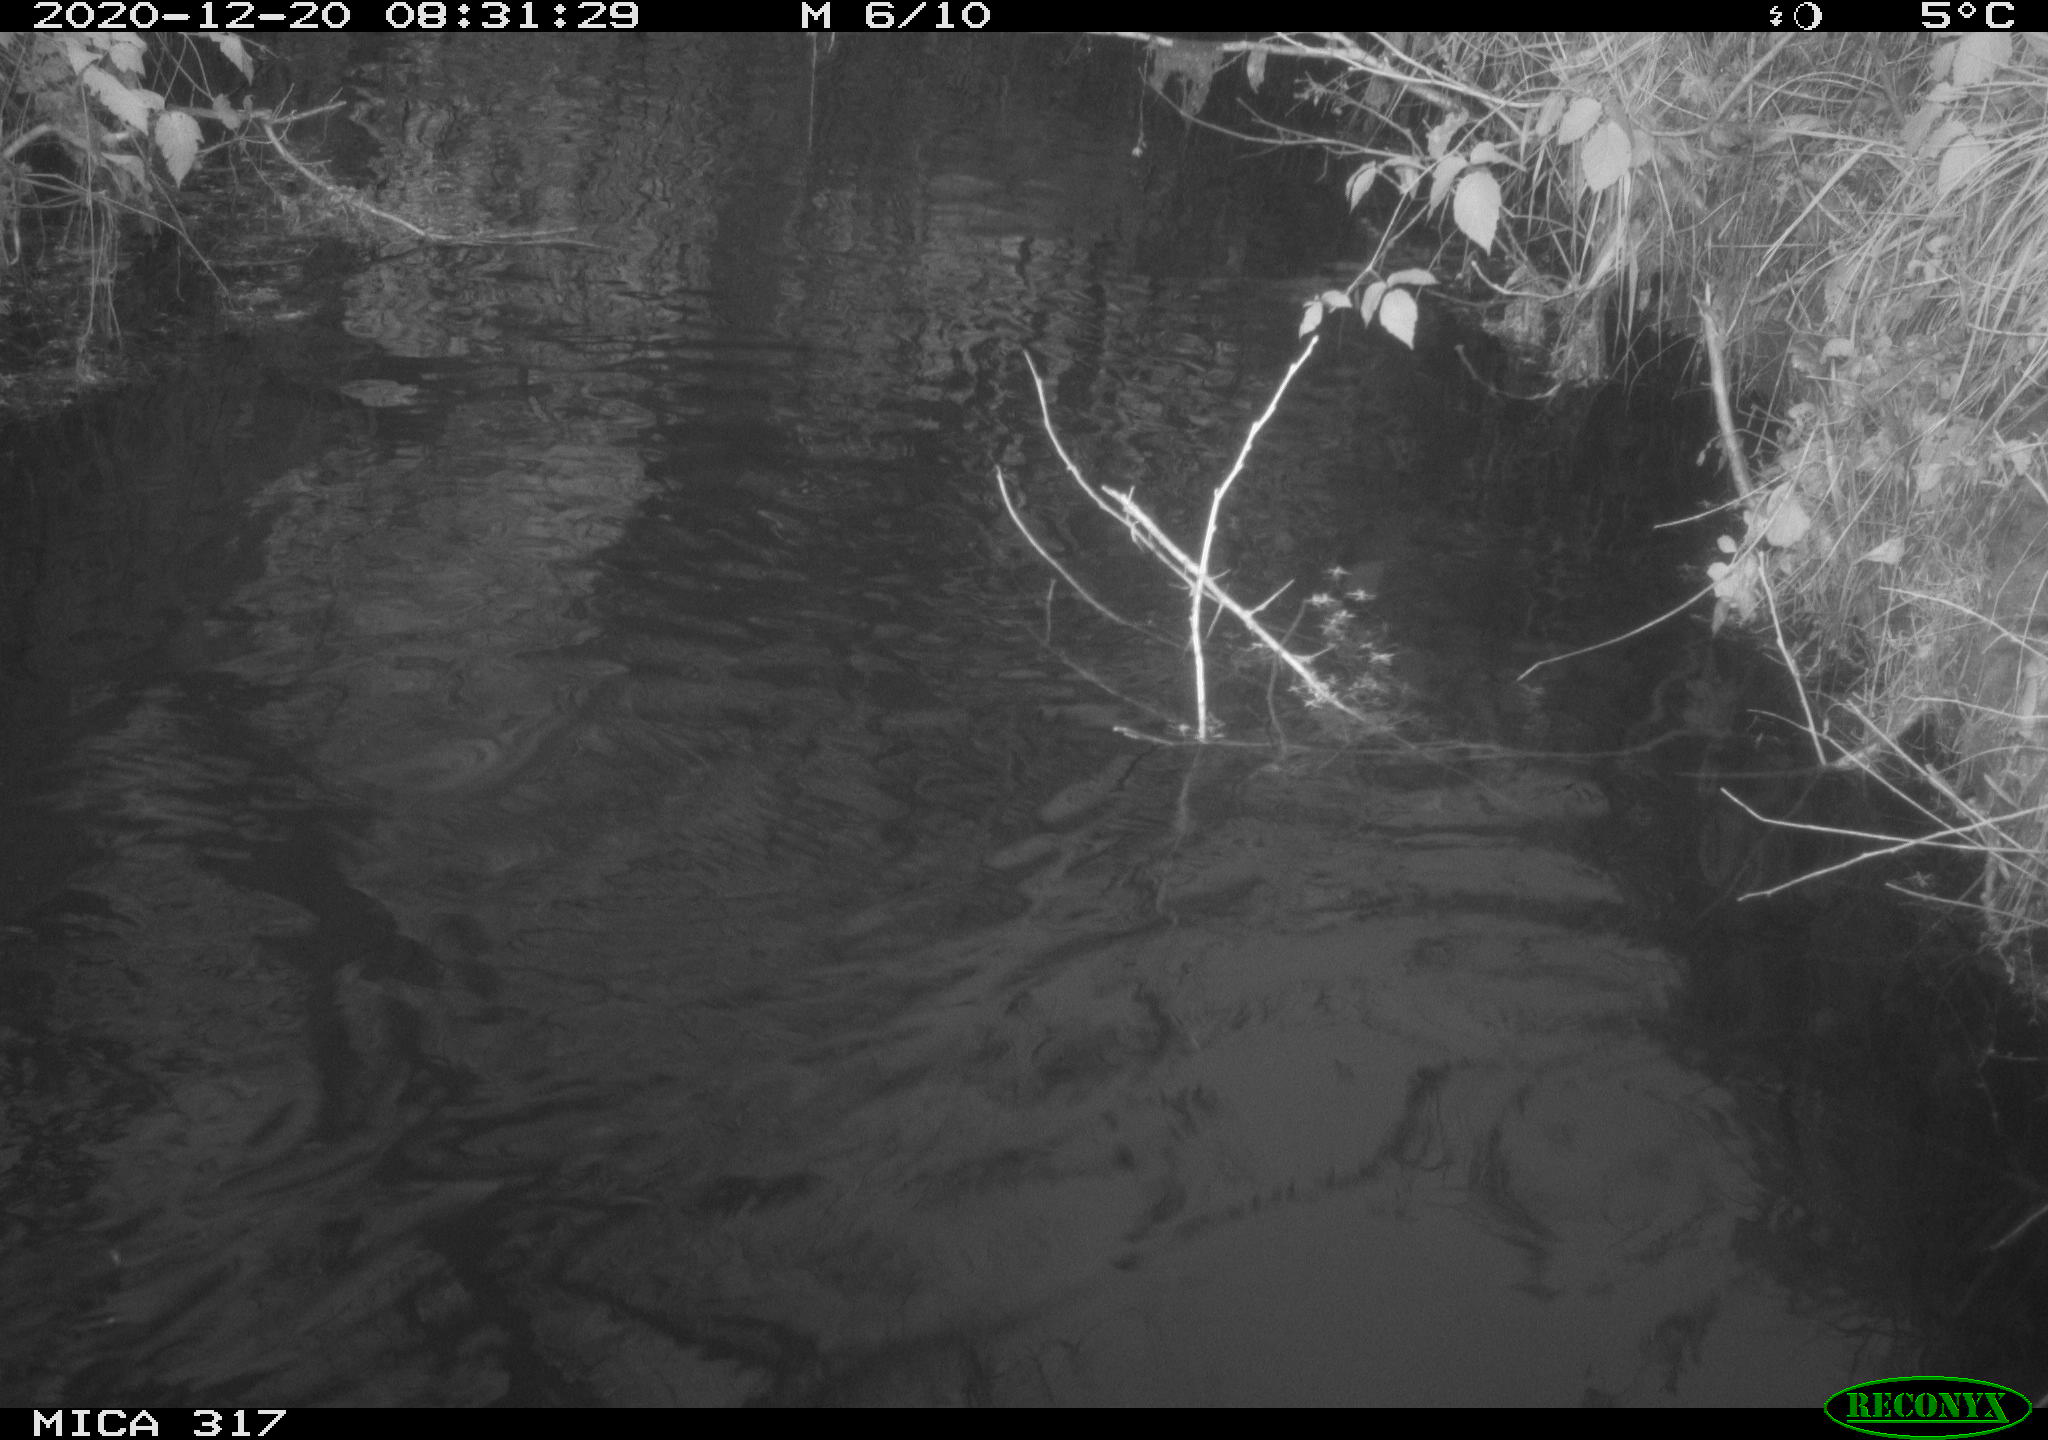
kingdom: Animalia
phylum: Chordata
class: Aves
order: Gruiformes
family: Rallidae
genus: Fulica
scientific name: Fulica atra
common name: Eurasian coot
